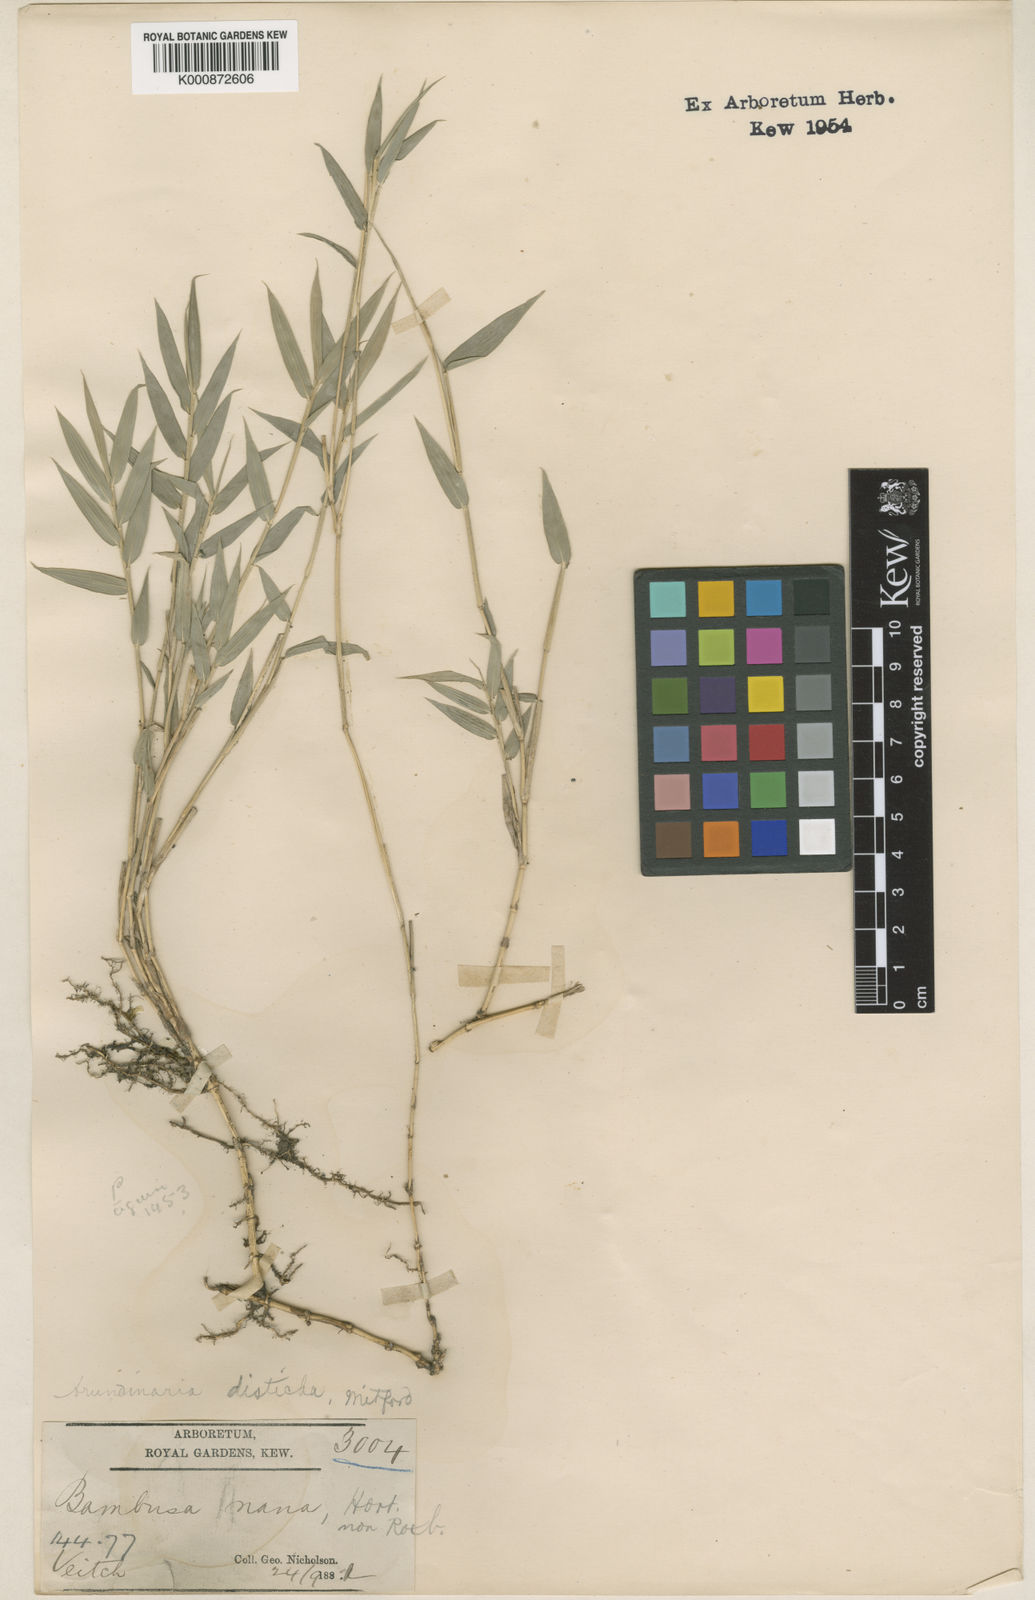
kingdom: Plantae
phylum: Tracheophyta
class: Liliopsida
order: Poales
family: Poaceae
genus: Pleioblastus
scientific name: Pleioblastus distichus
